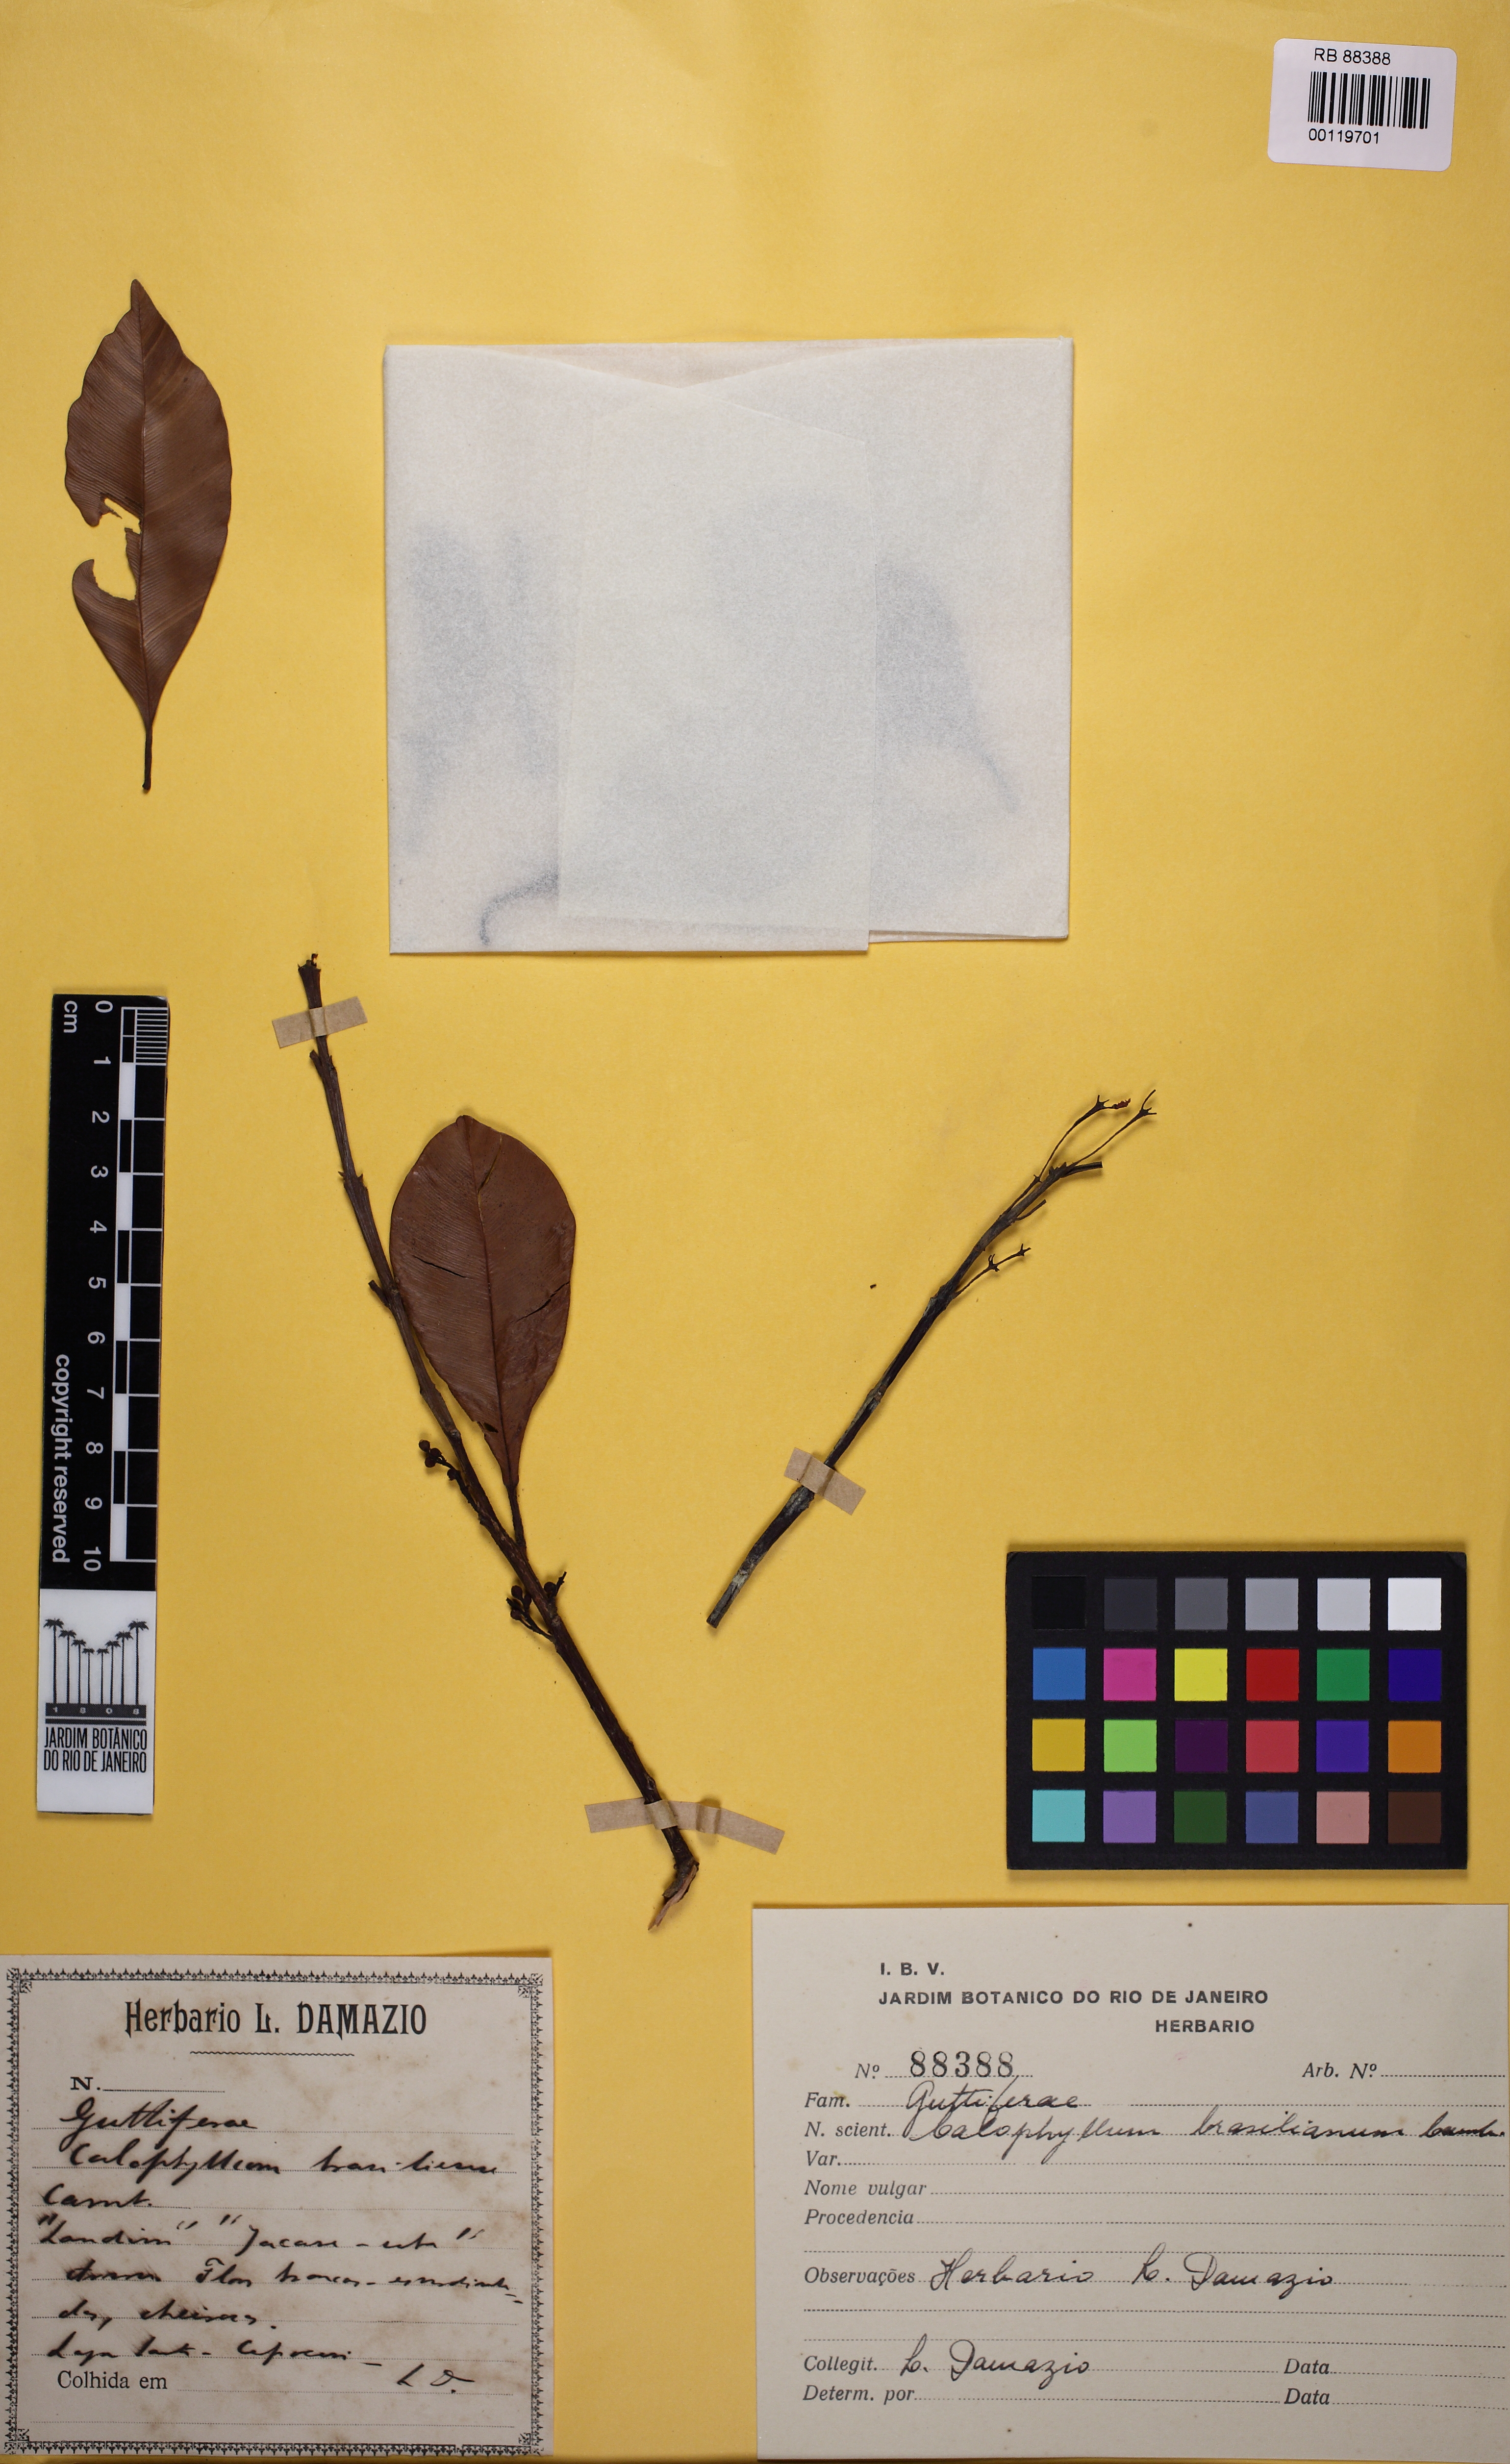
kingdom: Plantae
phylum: Tracheophyta
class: Magnoliopsida
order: Malpighiales
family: Calophyllaceae
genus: Calophyllum
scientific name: Calophyllum brasiliense
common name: Santa maria
